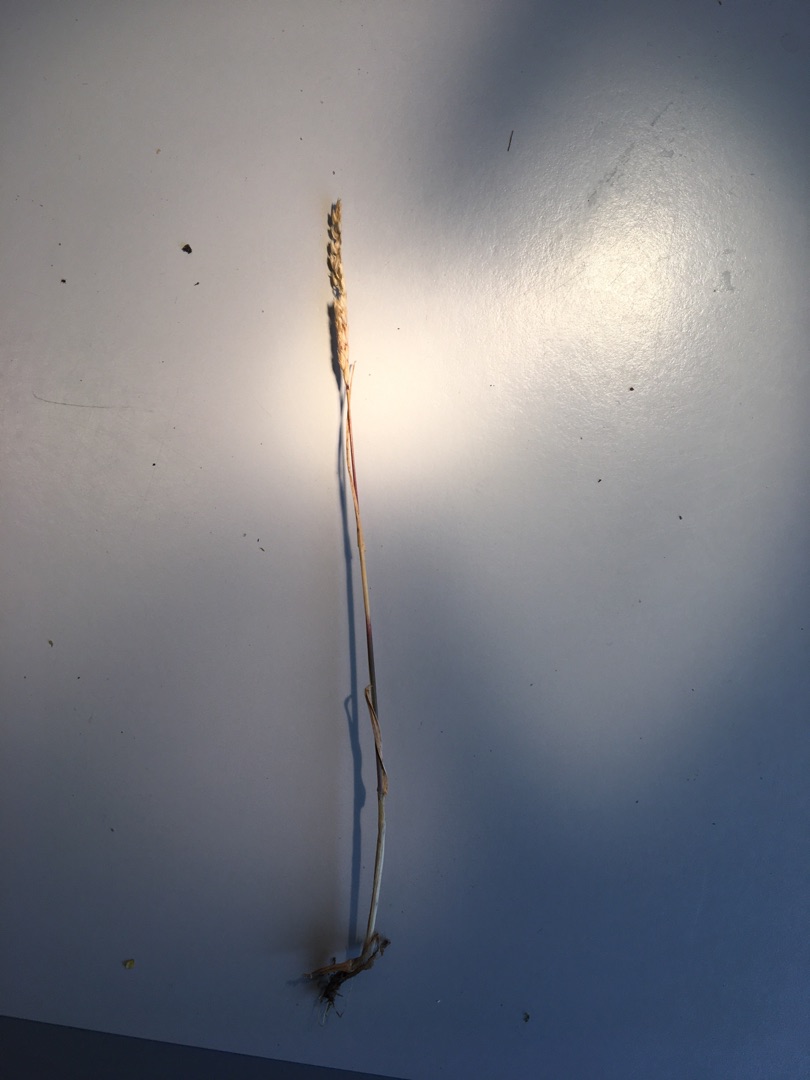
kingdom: Plantae
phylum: Tracheophyta
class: Liliopsida
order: Poales
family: Poaceae
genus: Cynosurus
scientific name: Cynosurus cristatus
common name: Kamgræs
